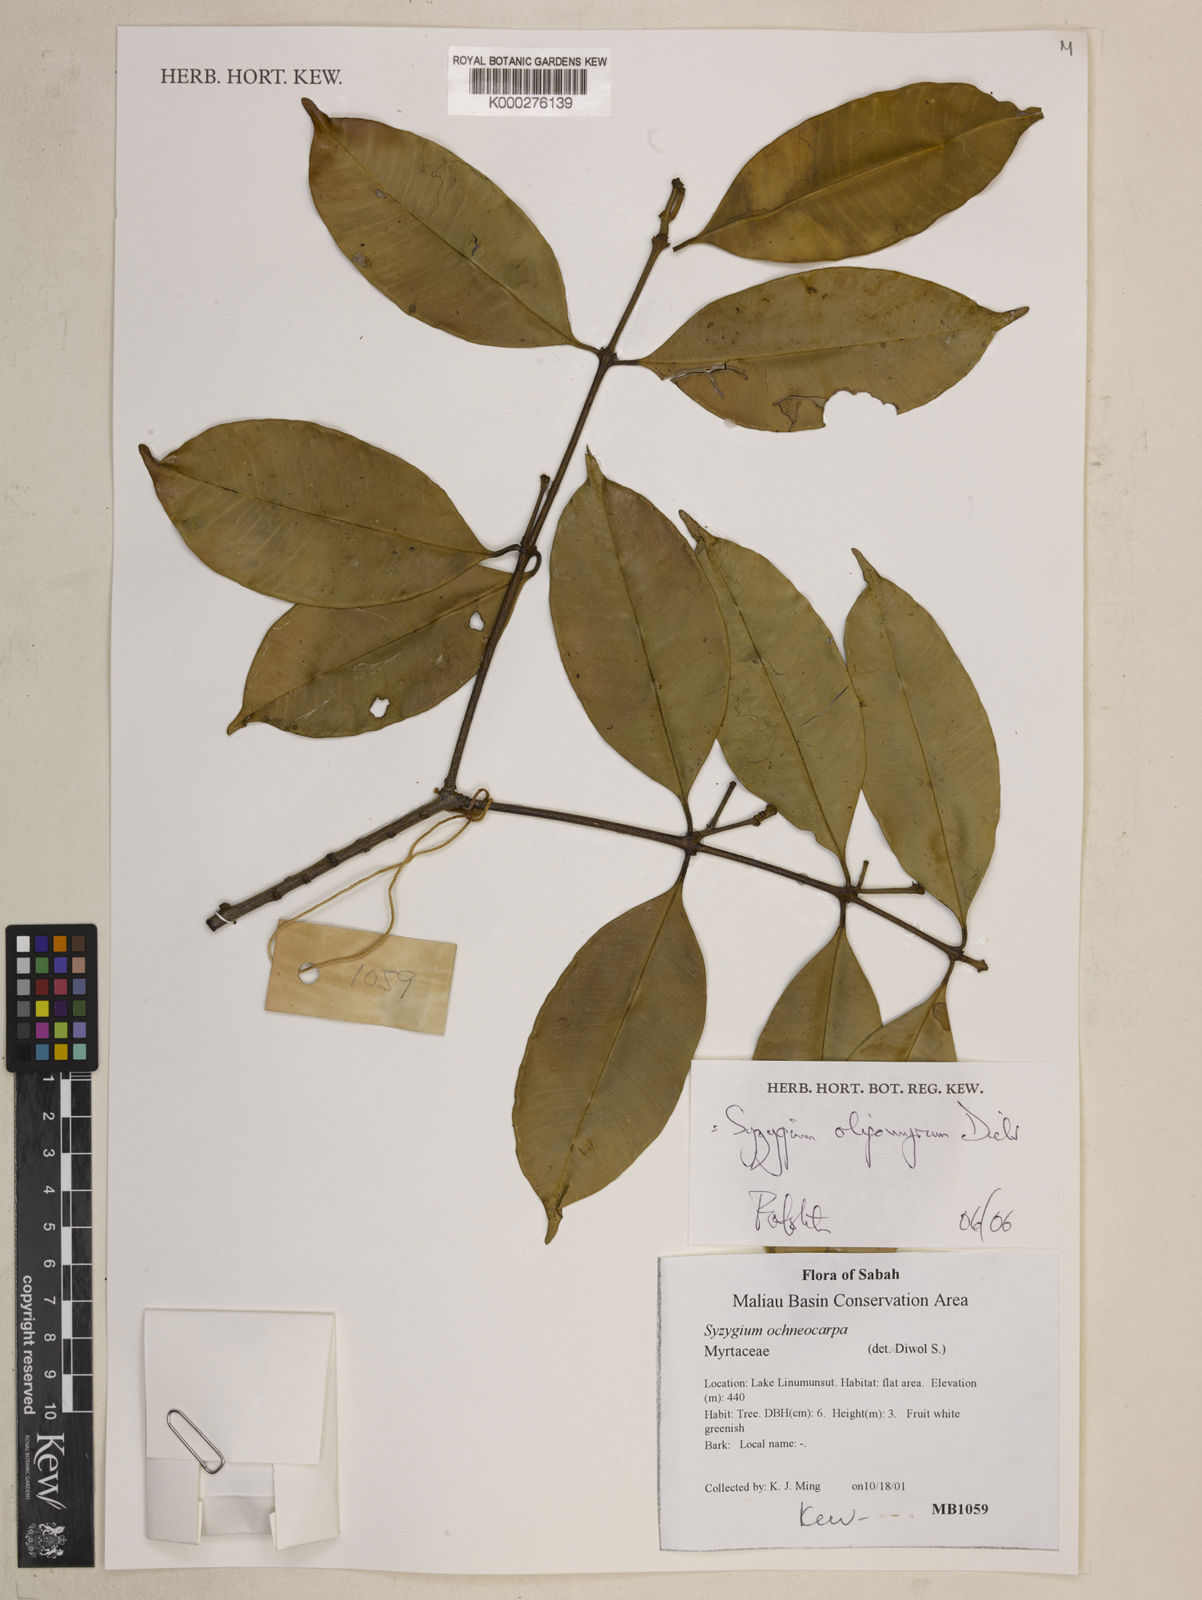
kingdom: Plantae
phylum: Tracheophyta
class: Magnoliopsida
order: Myrtales
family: Myrtaceae
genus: Syzygium
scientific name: Syzygium oligomyrum
